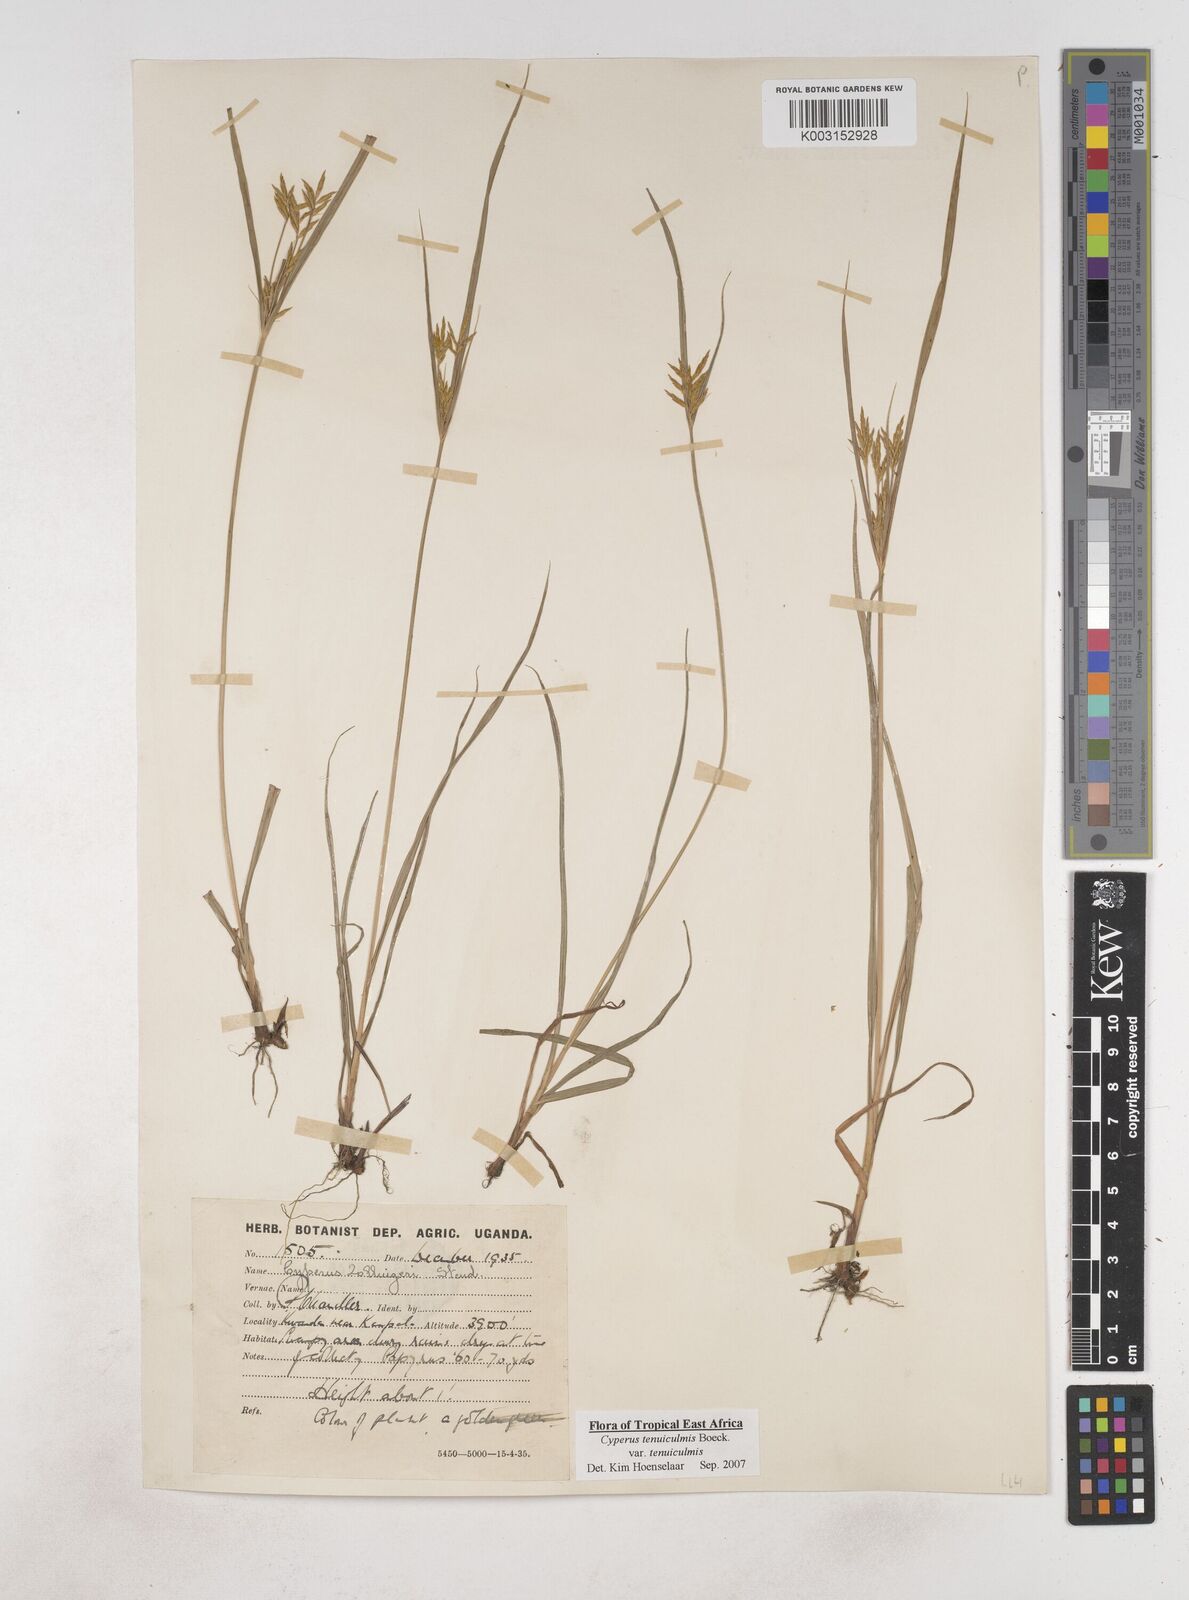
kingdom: Plantae
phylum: Tracheophyta
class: Liliopsida
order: Poales
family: Cyperaceae
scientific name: Cyperaceae
